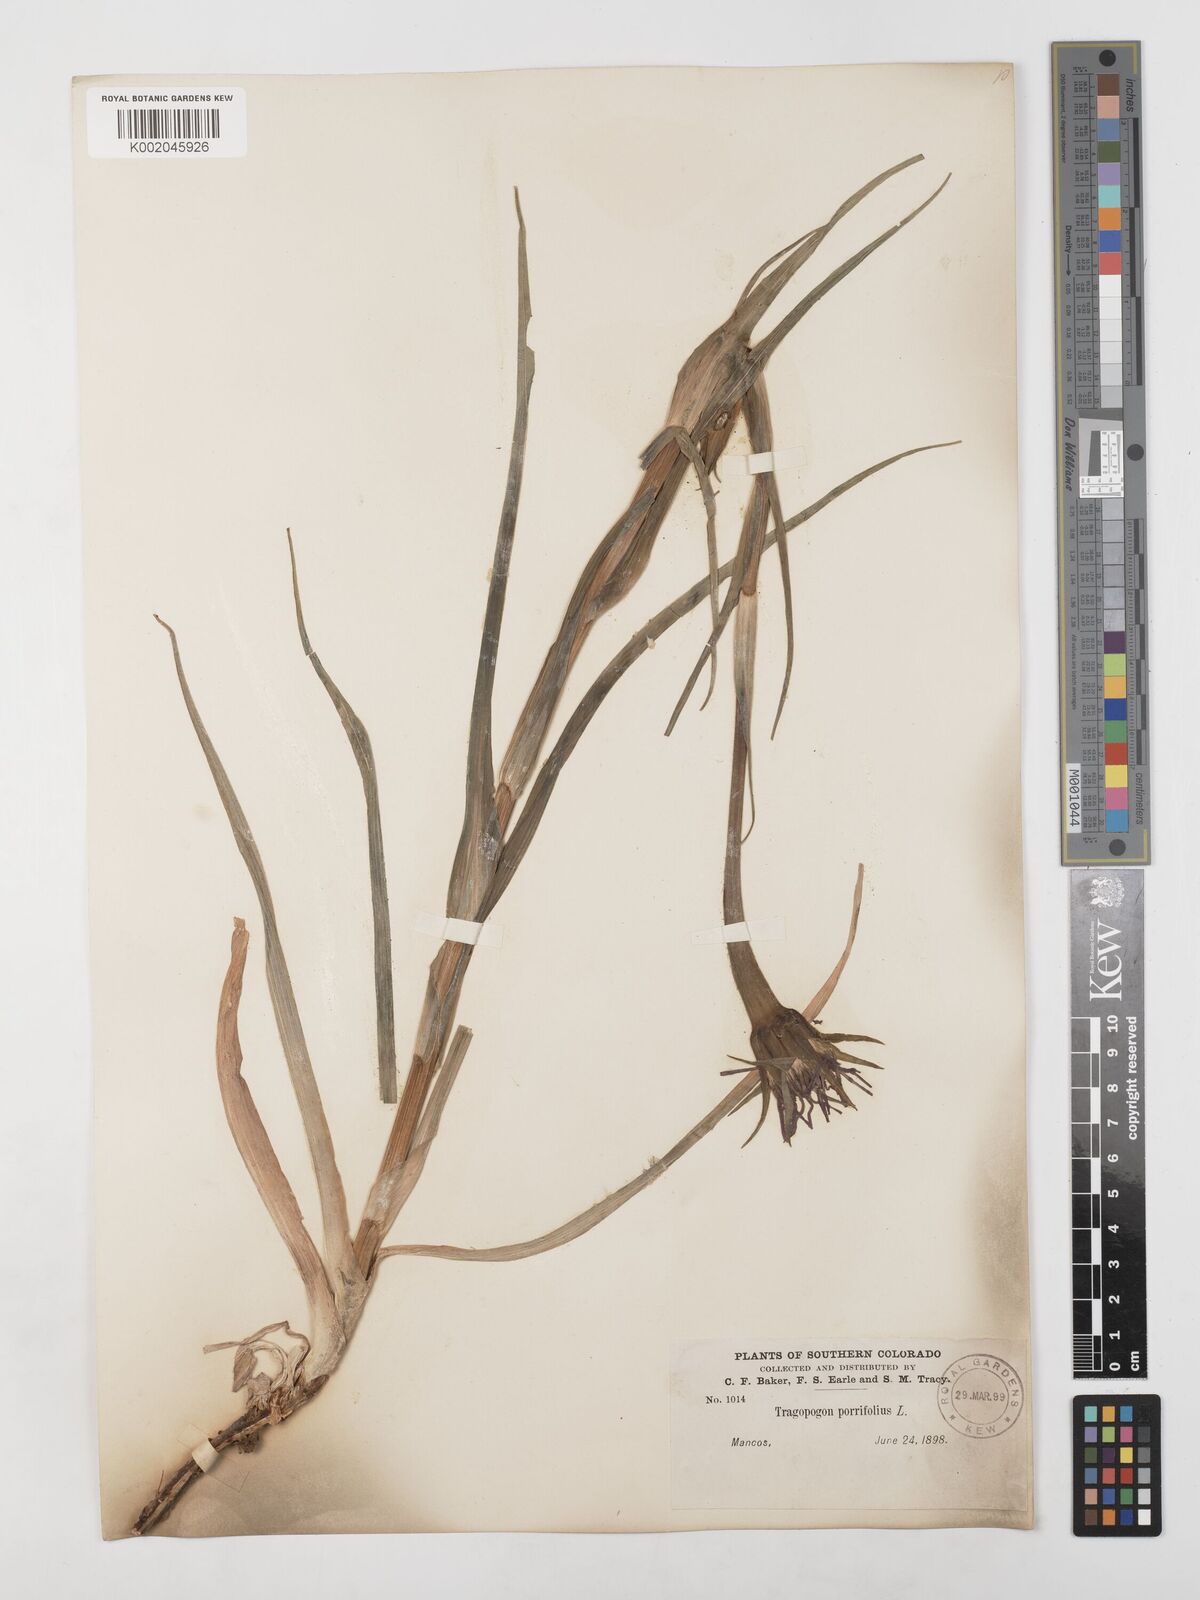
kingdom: Plantae
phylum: Tracheophyta
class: Magnoliopsida
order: Asterales
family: Asteraceae
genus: Tragopogon
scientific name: Tragopogon porrifolius
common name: Salsify
